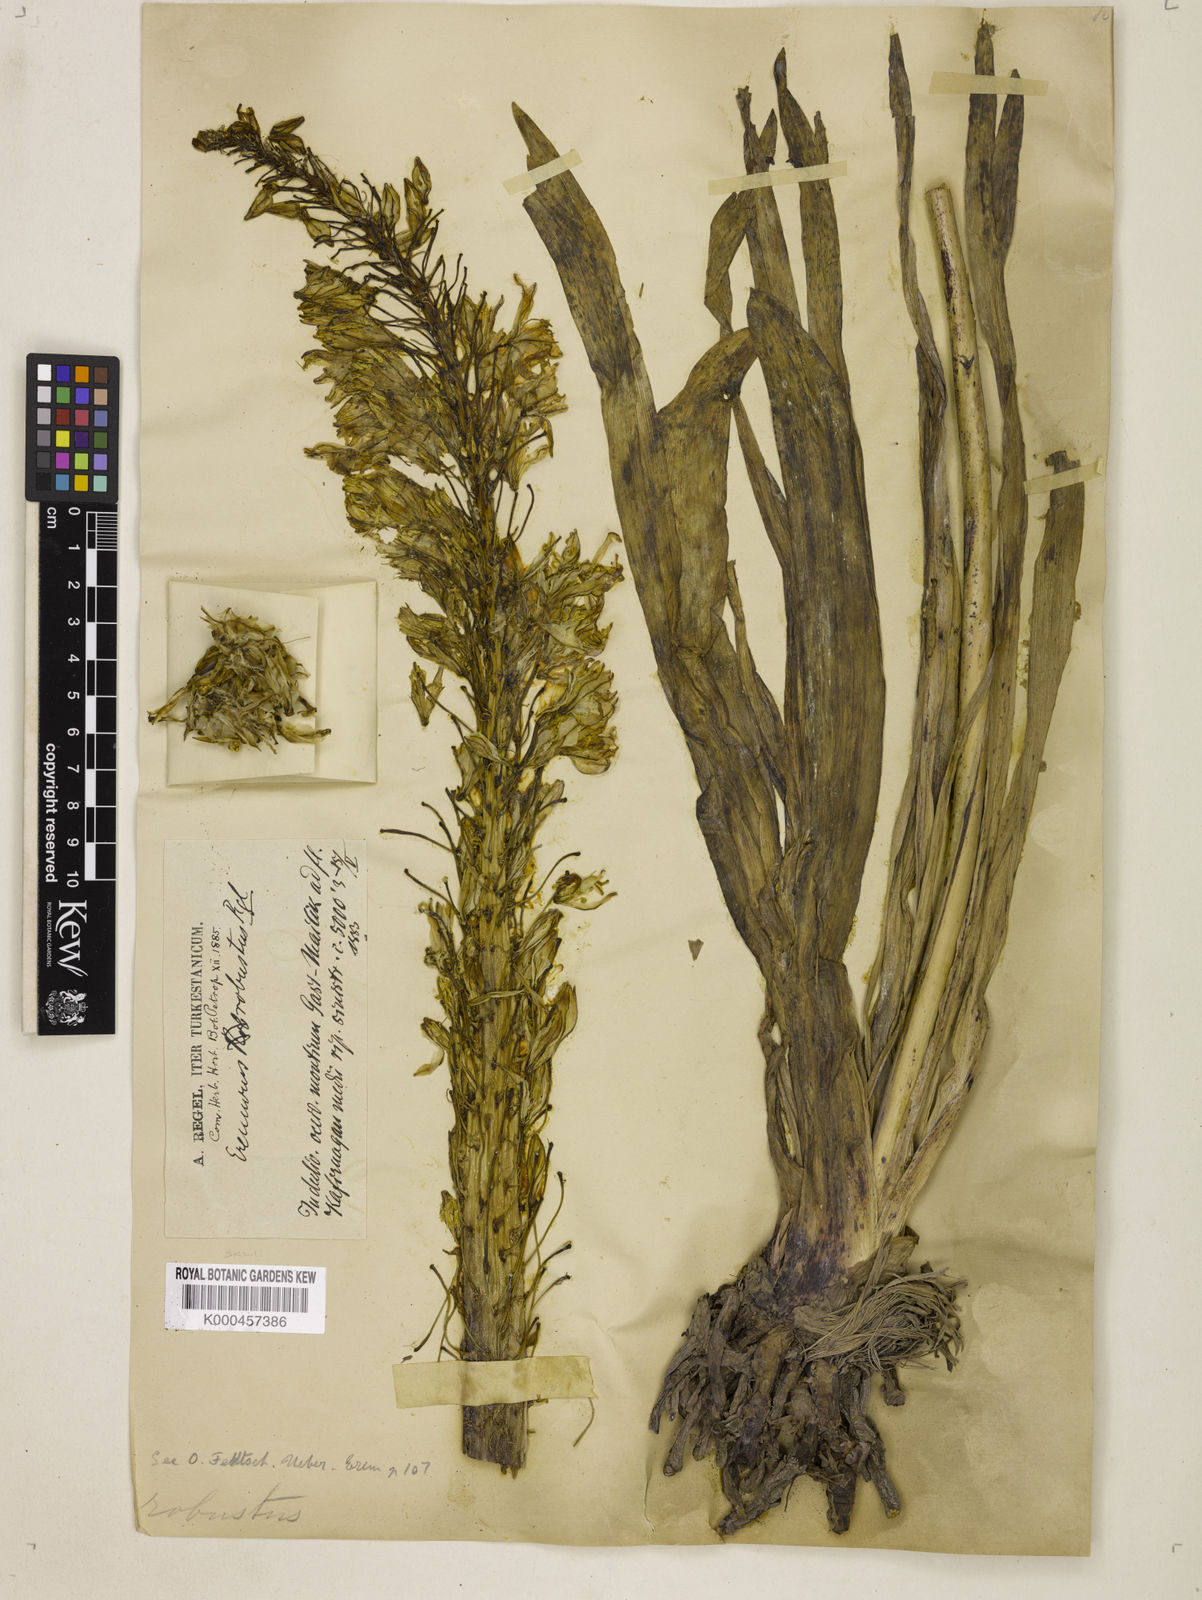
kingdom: Plantae
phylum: Tracheophyta
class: Liliopsida
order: Asparagales
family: Asphodelaceae
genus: Eremurus
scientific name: Eremurus robustus
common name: Foxtail lily
